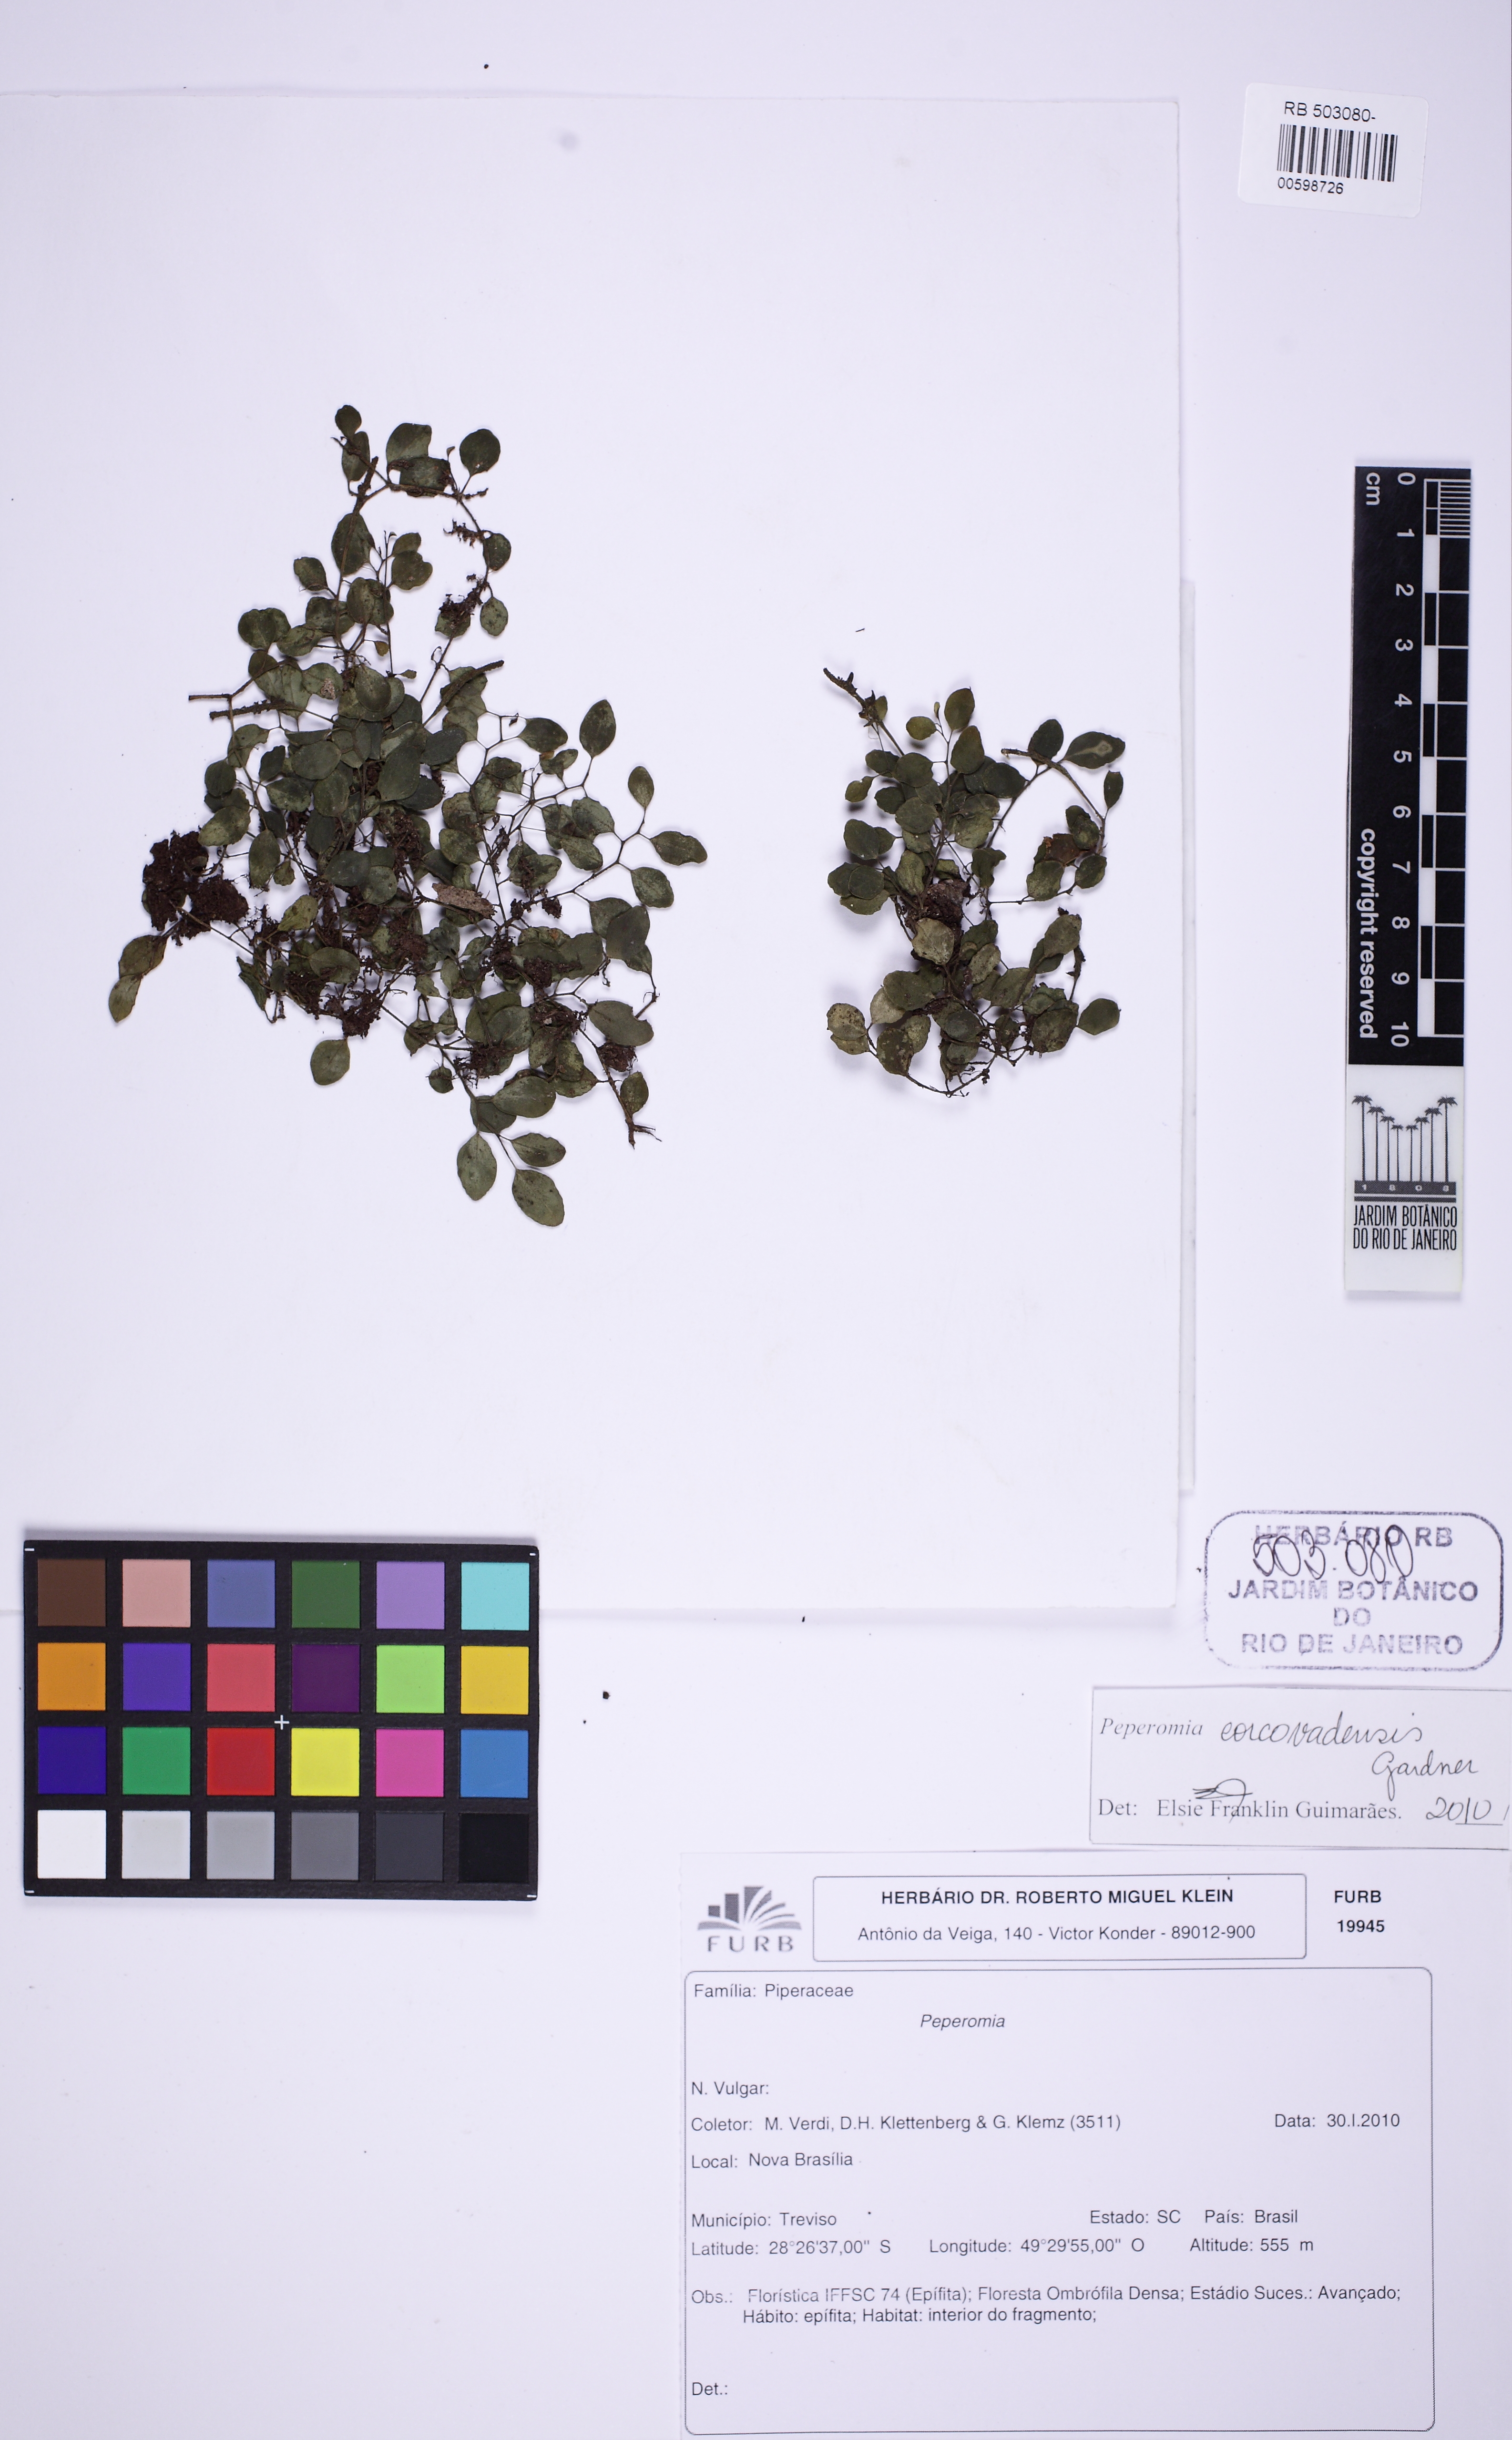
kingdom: Plantae
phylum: Tracheophyta
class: Magnoliopsida
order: Piperales
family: Piperaceae
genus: Peperomia
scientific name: Peperomia corcovadensis
